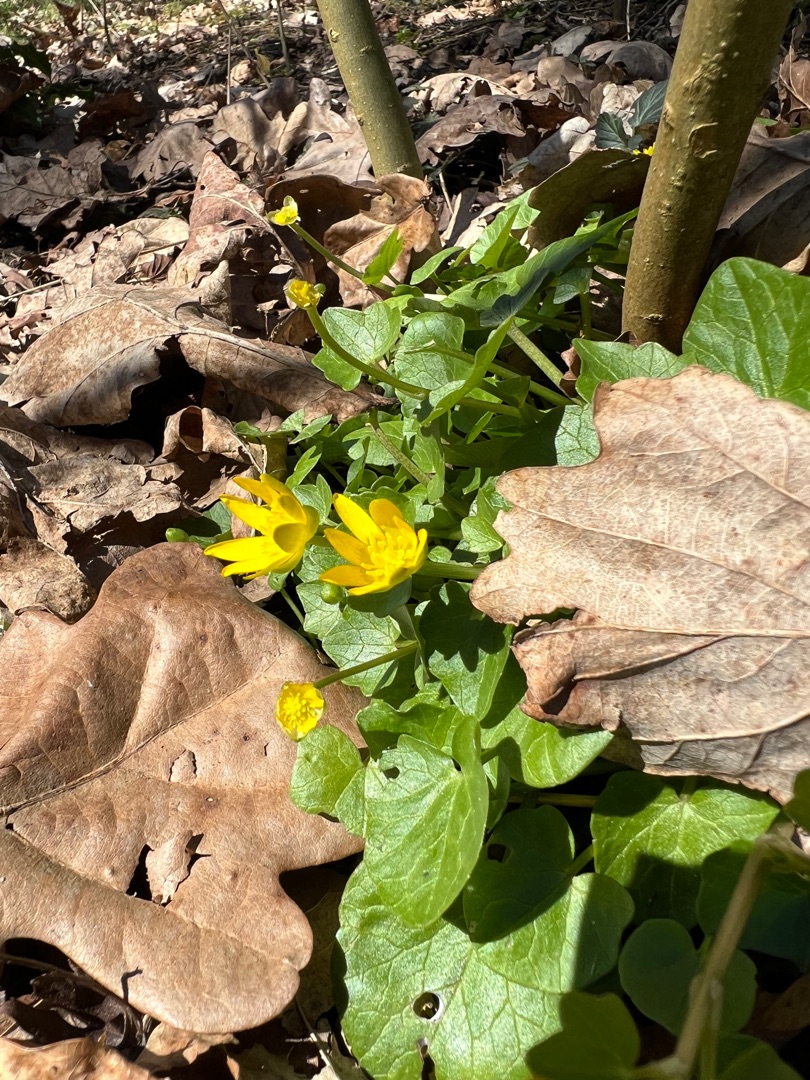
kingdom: Plantae
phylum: Tracheophyta
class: Magnoliopsida
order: Ranunculales
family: Ranunculaceae
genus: Ficaria
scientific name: Ficaria verna
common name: Vorterod
